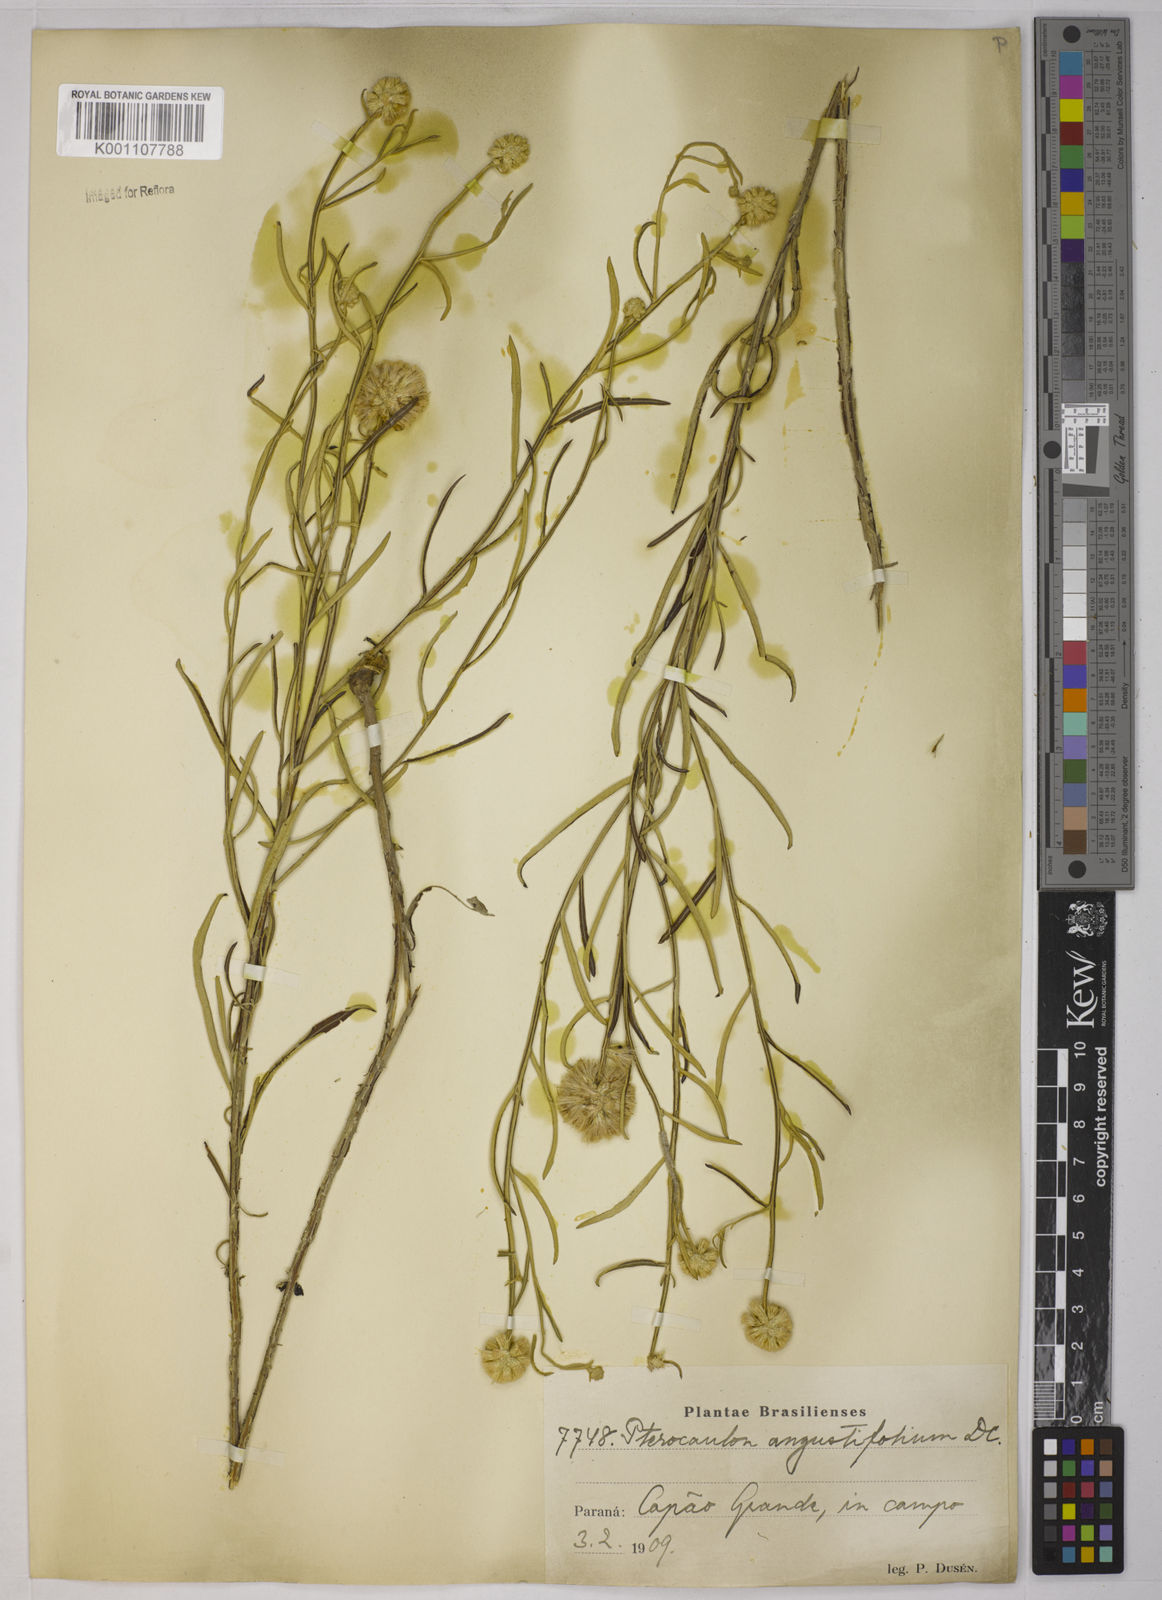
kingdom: Plantae
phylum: Tracheophyta
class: Magnoliopsida
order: Asterales
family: Asteraceae
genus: Pterocaulon
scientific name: Pterocaulon angustifolium
